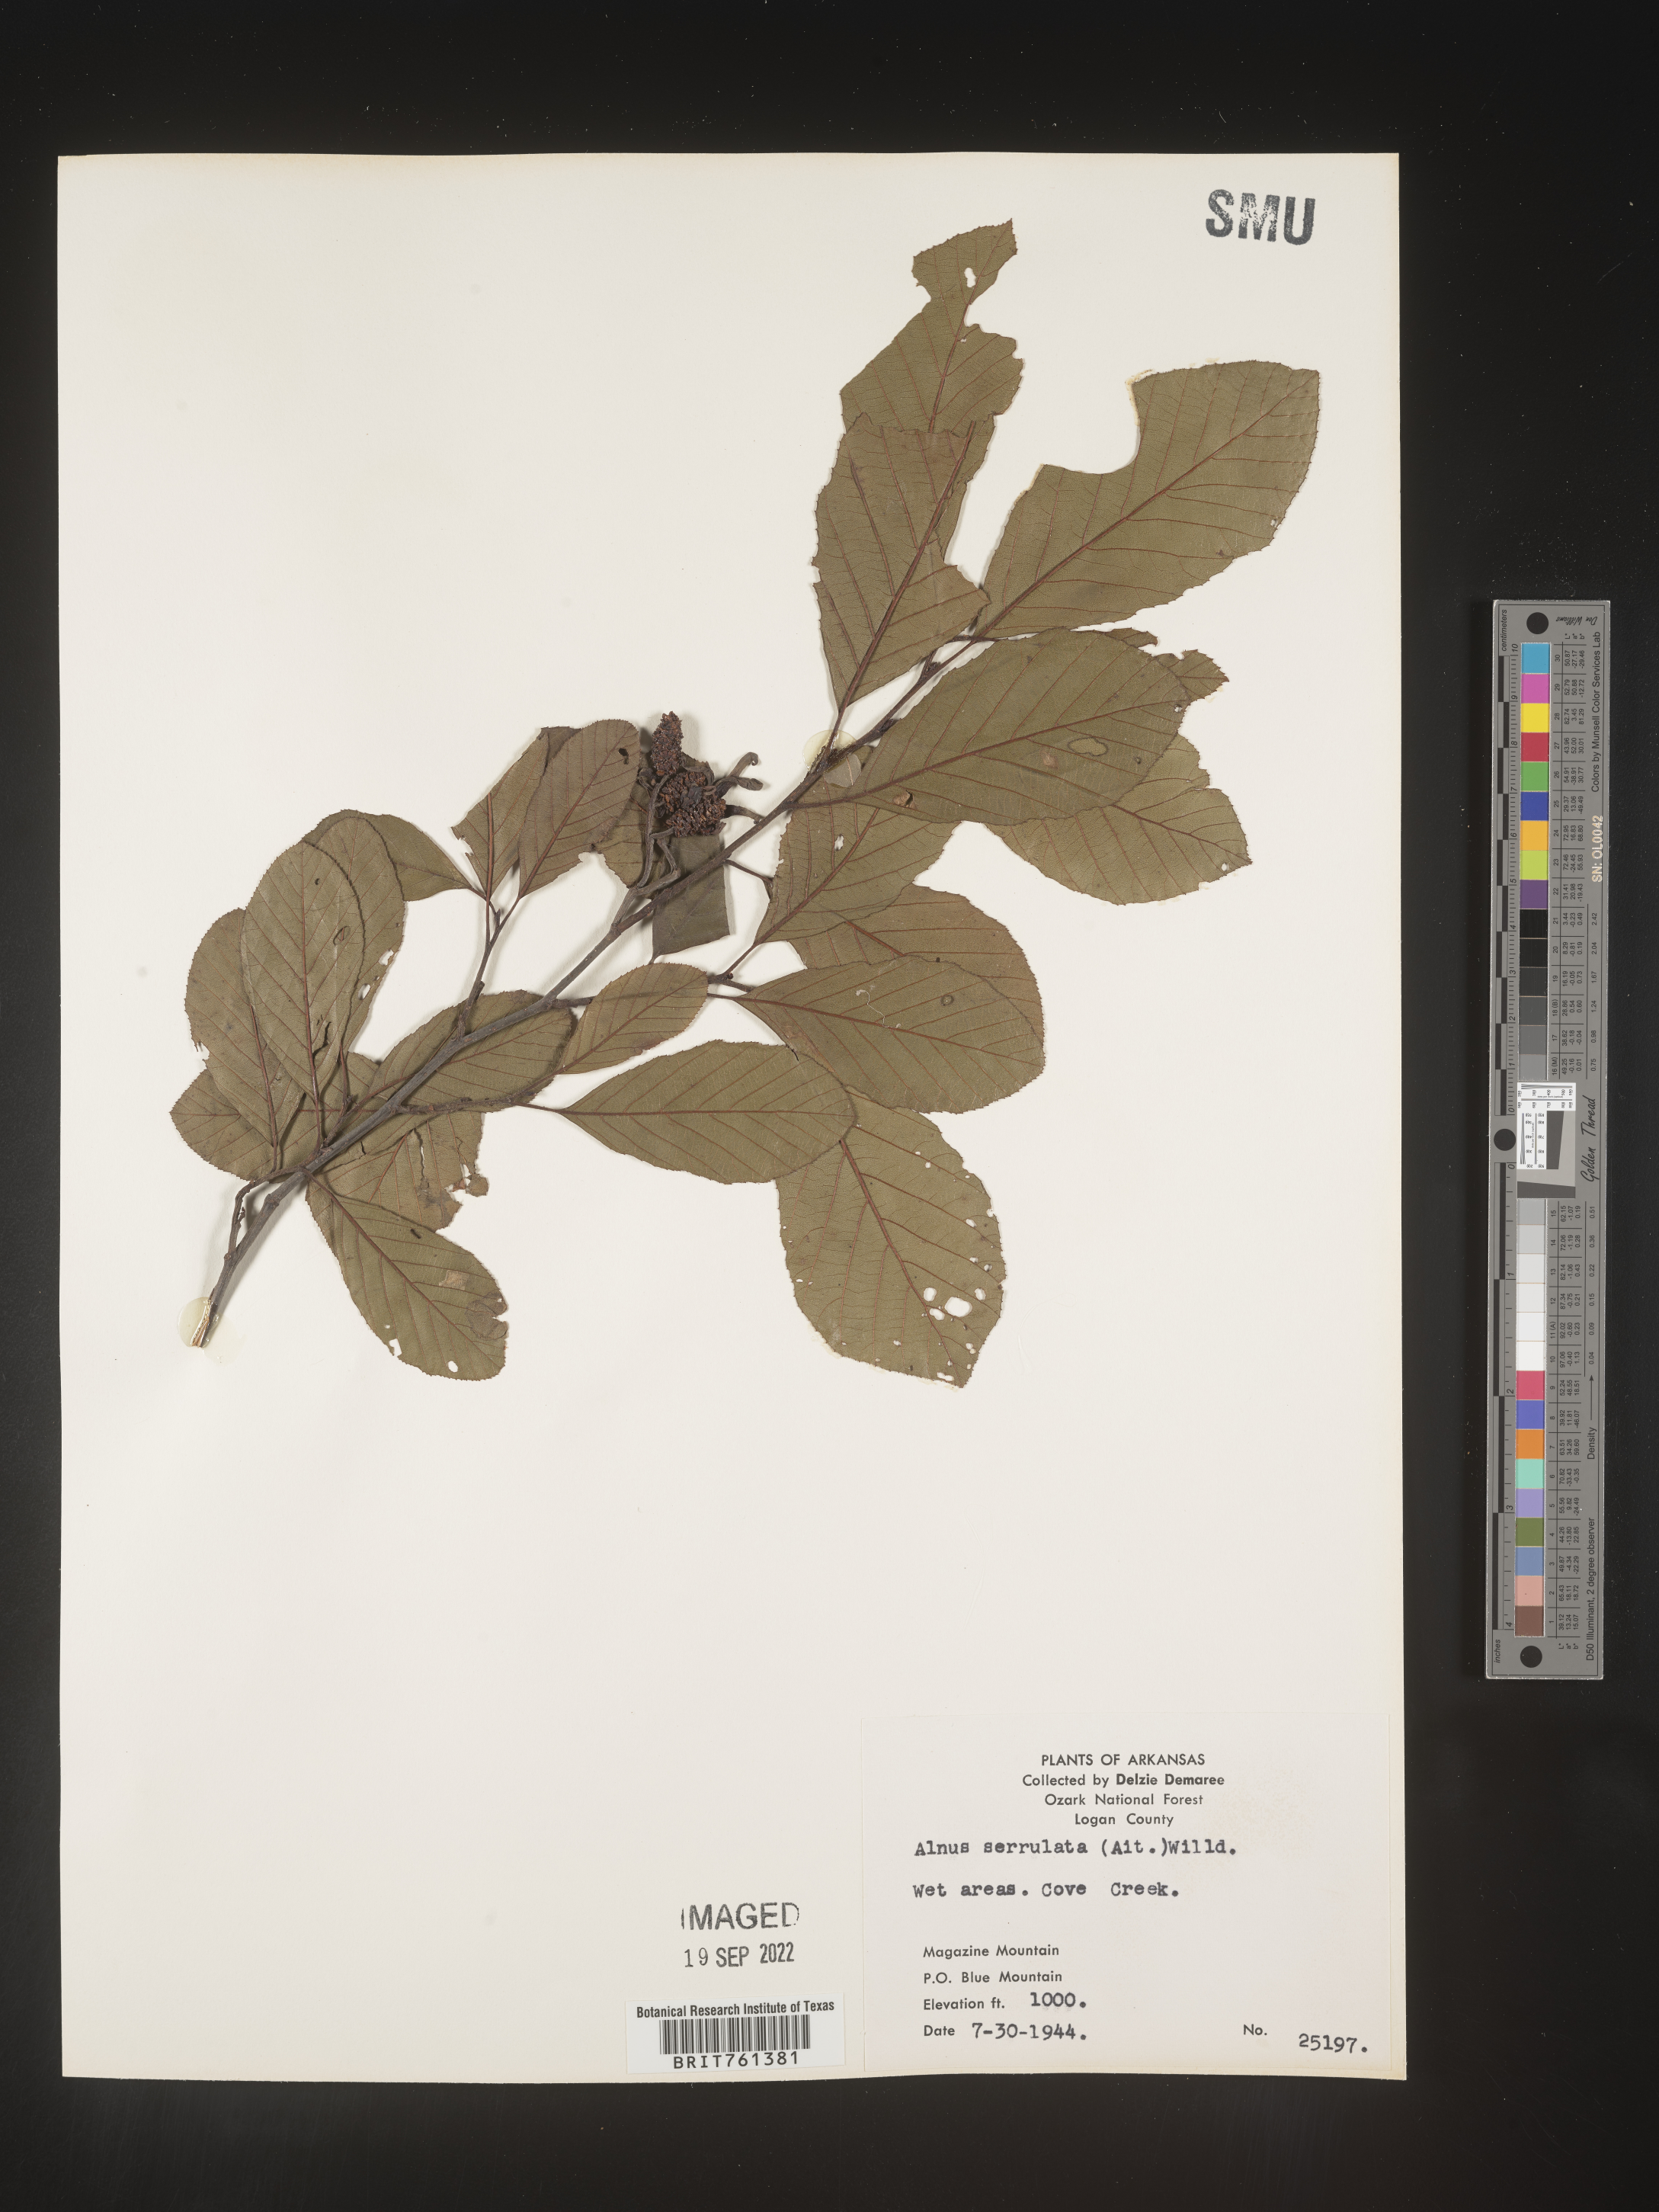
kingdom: Plantae
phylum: Tracheophyta
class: Magnoliopsida
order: Fagales
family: Betulaceae
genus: Alnus
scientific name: Alnus serrulata
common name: Hazel alder
